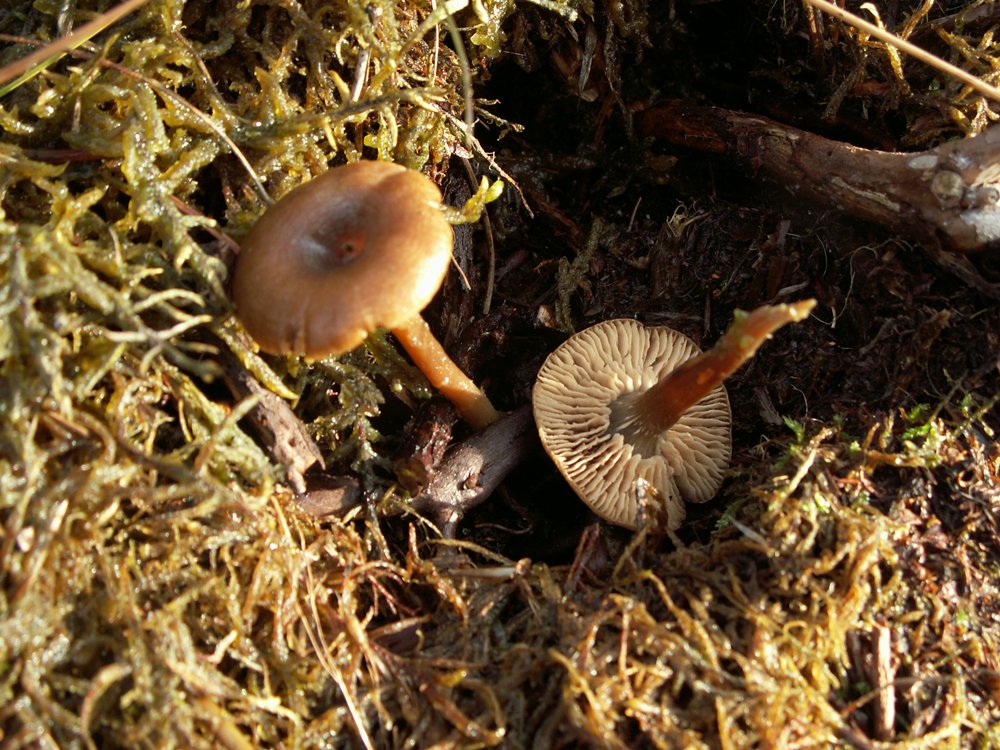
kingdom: Fungi
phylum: Basidiomycota
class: Agaricomycetes
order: Agaricales
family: Entolomataceae
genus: Clitopilus
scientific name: Clitopilus caelatus
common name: gråbrun troldhat
